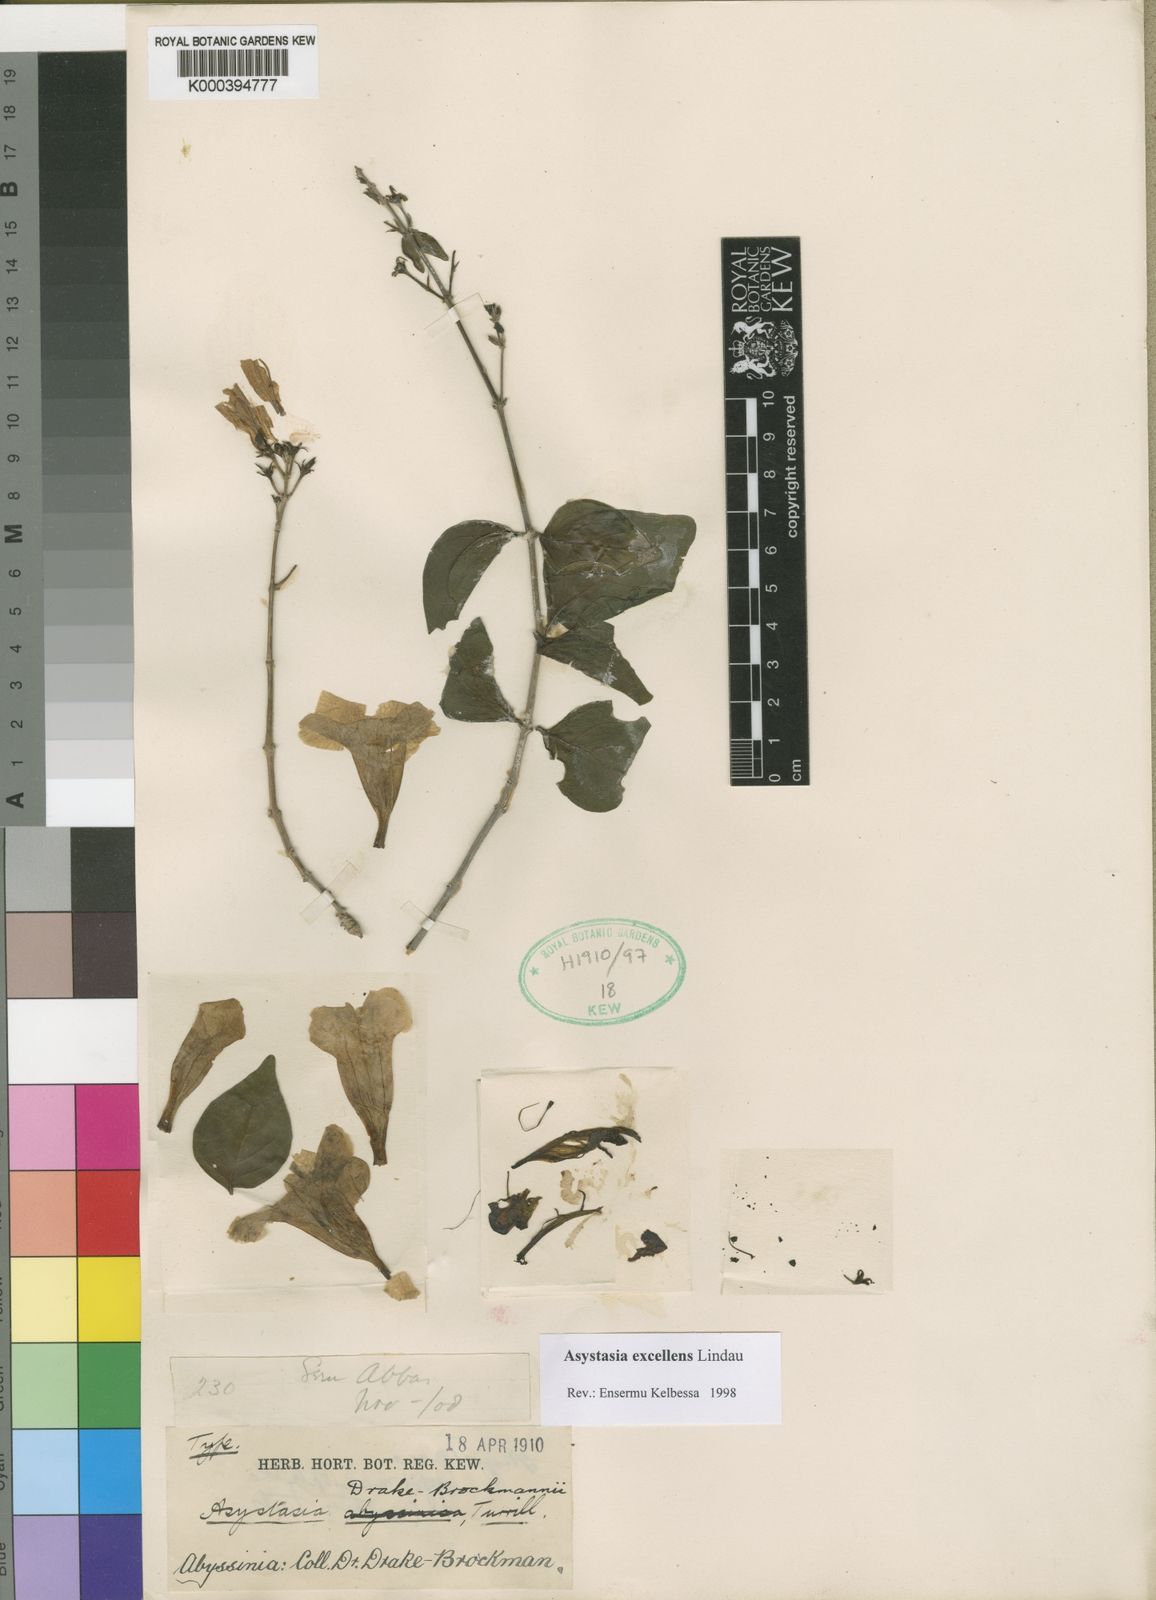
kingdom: Plantae
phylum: Tracheophyta
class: Magnoliopsida
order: Lamiales
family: Acanthaceae
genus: Asystasia
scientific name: Asystasia excellens
